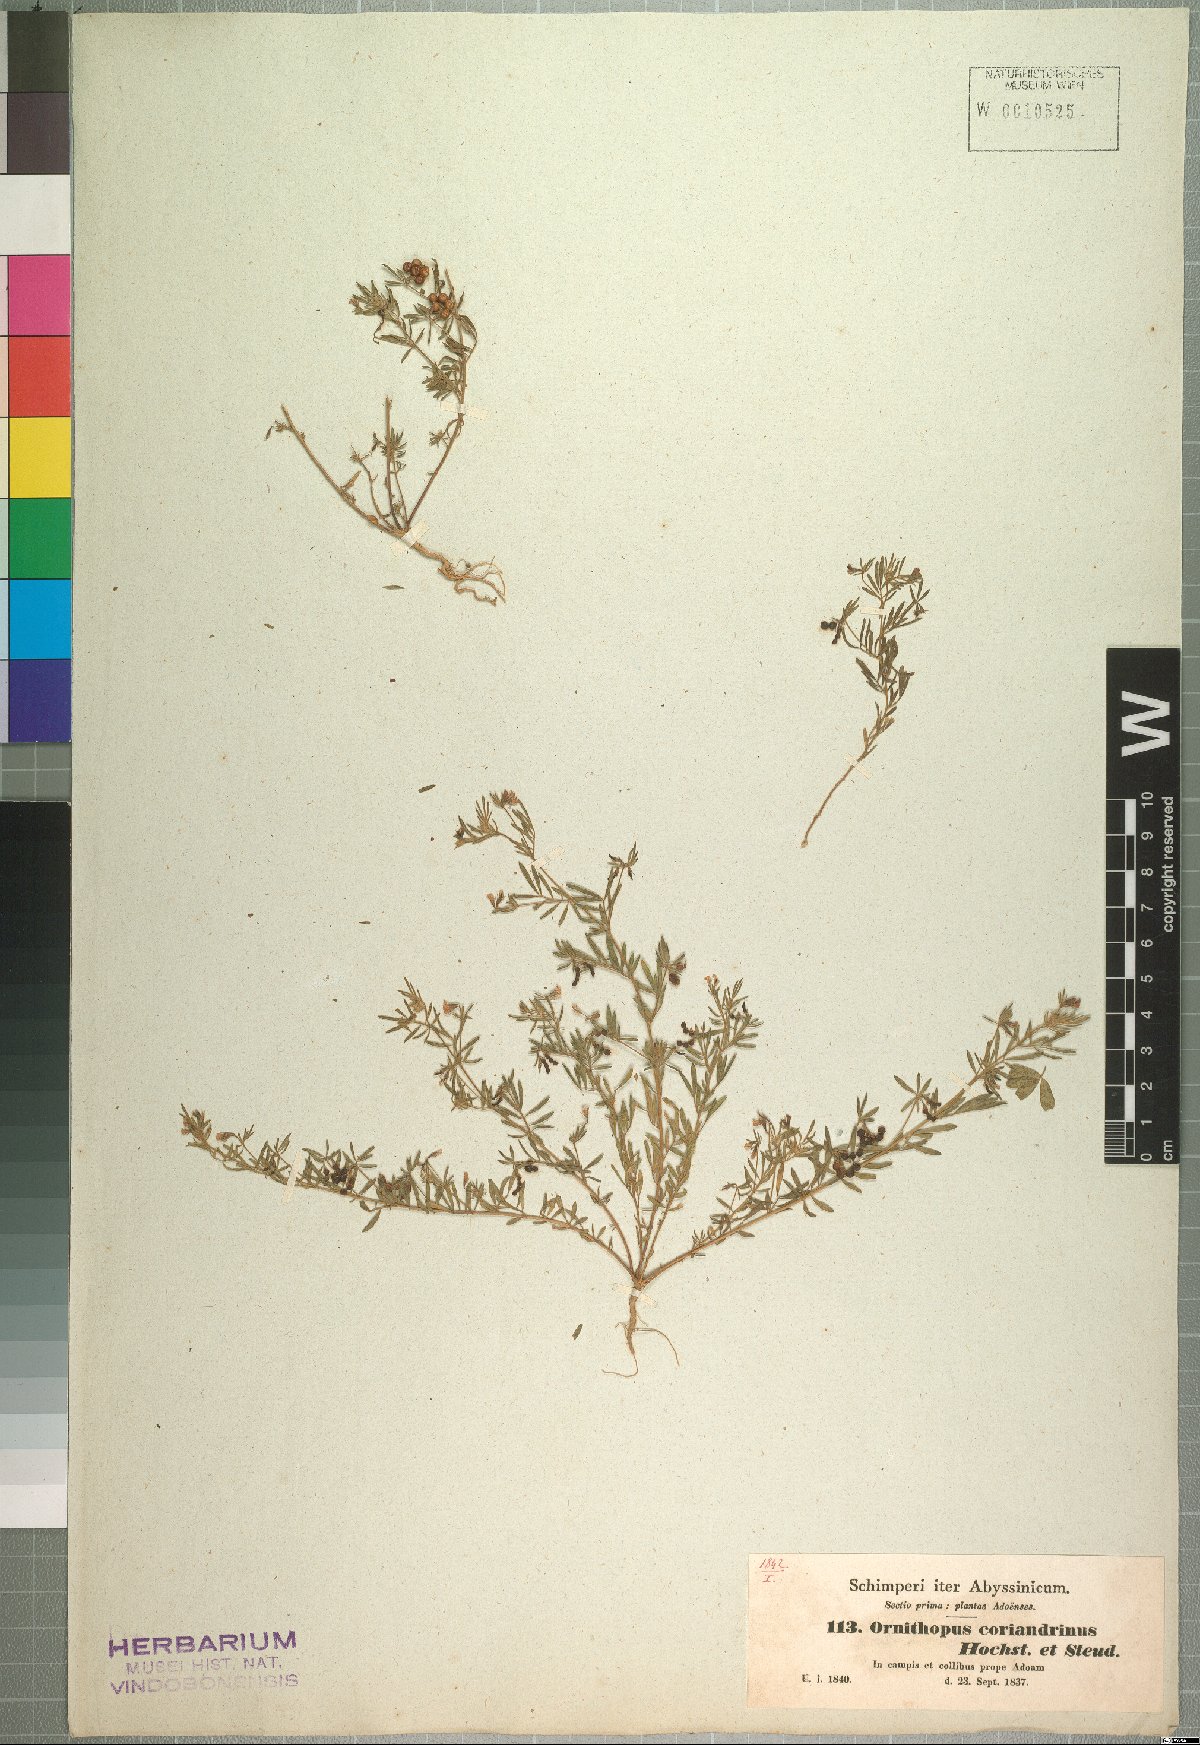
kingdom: Plantae
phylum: Tracheophyta
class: Magnoliopsida
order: Fabales
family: Fabaceae
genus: Antopetitia
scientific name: Antopetitia abyssinica
